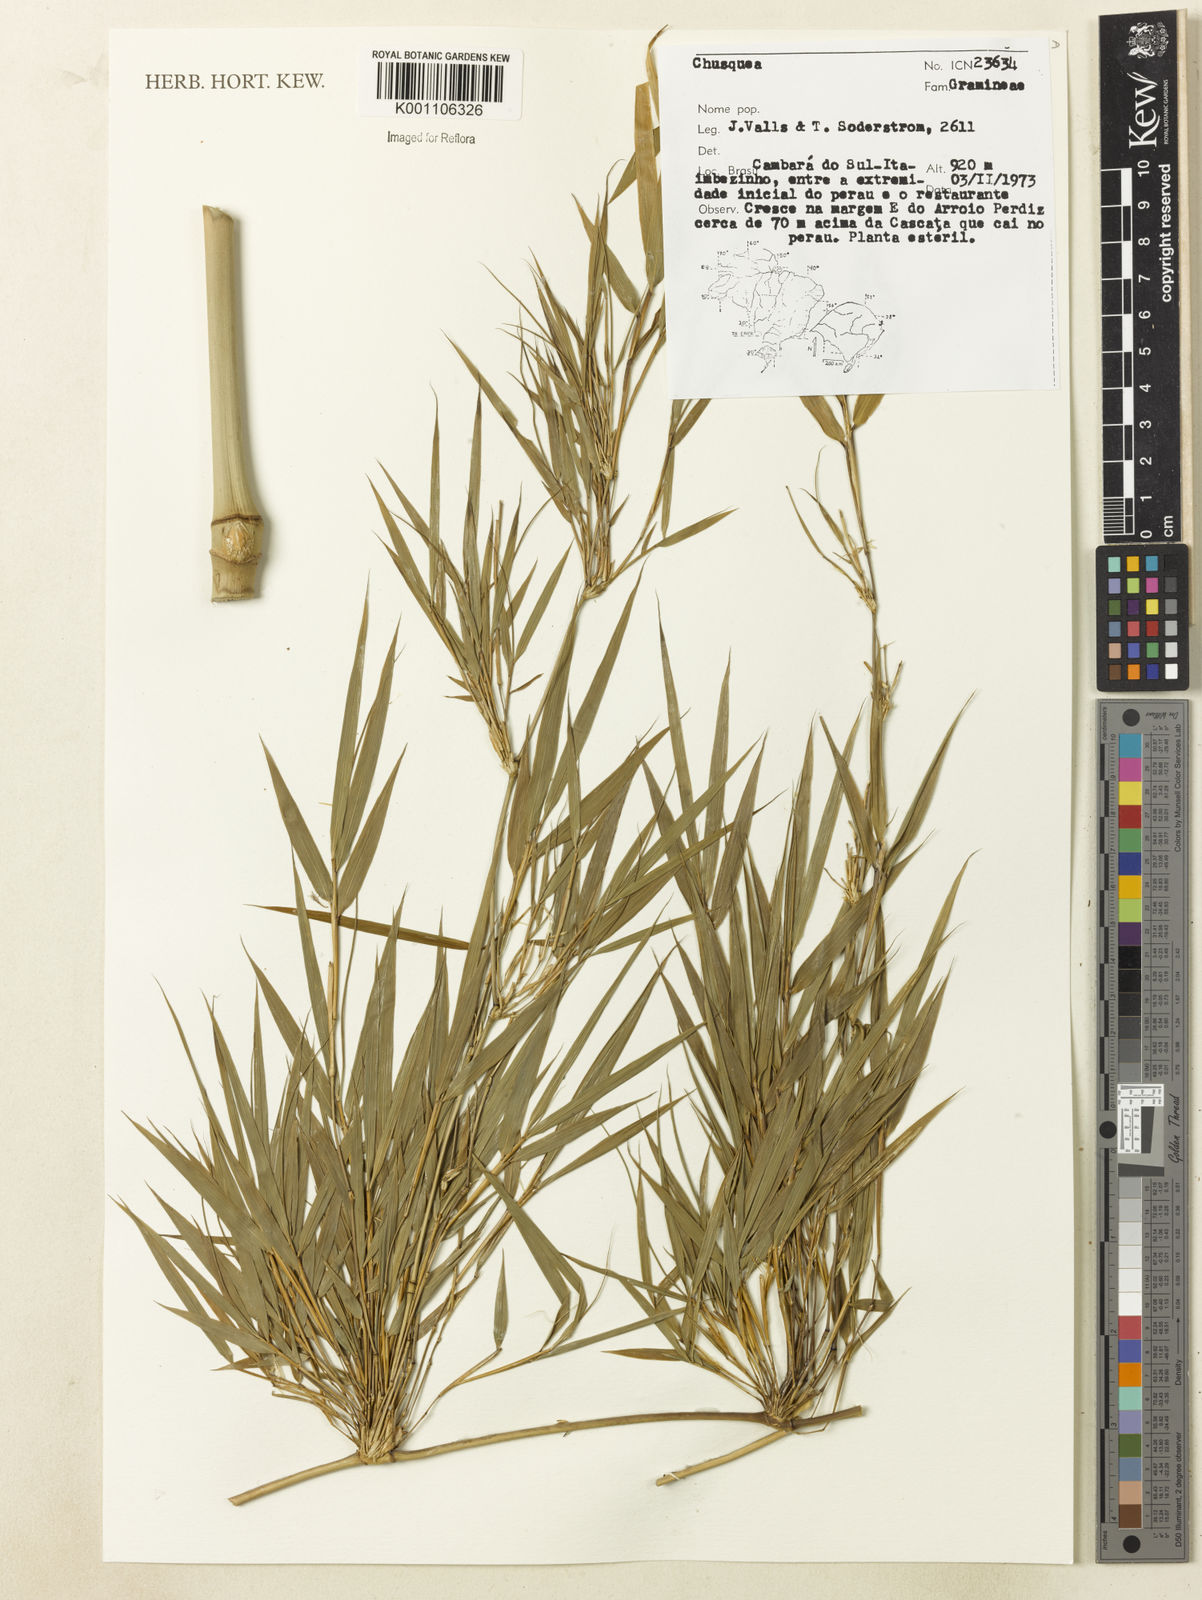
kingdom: Plantae
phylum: Tracheophyta
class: Liliopsida
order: Poales
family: Poaceae
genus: Chusquea
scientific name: Chusquea
